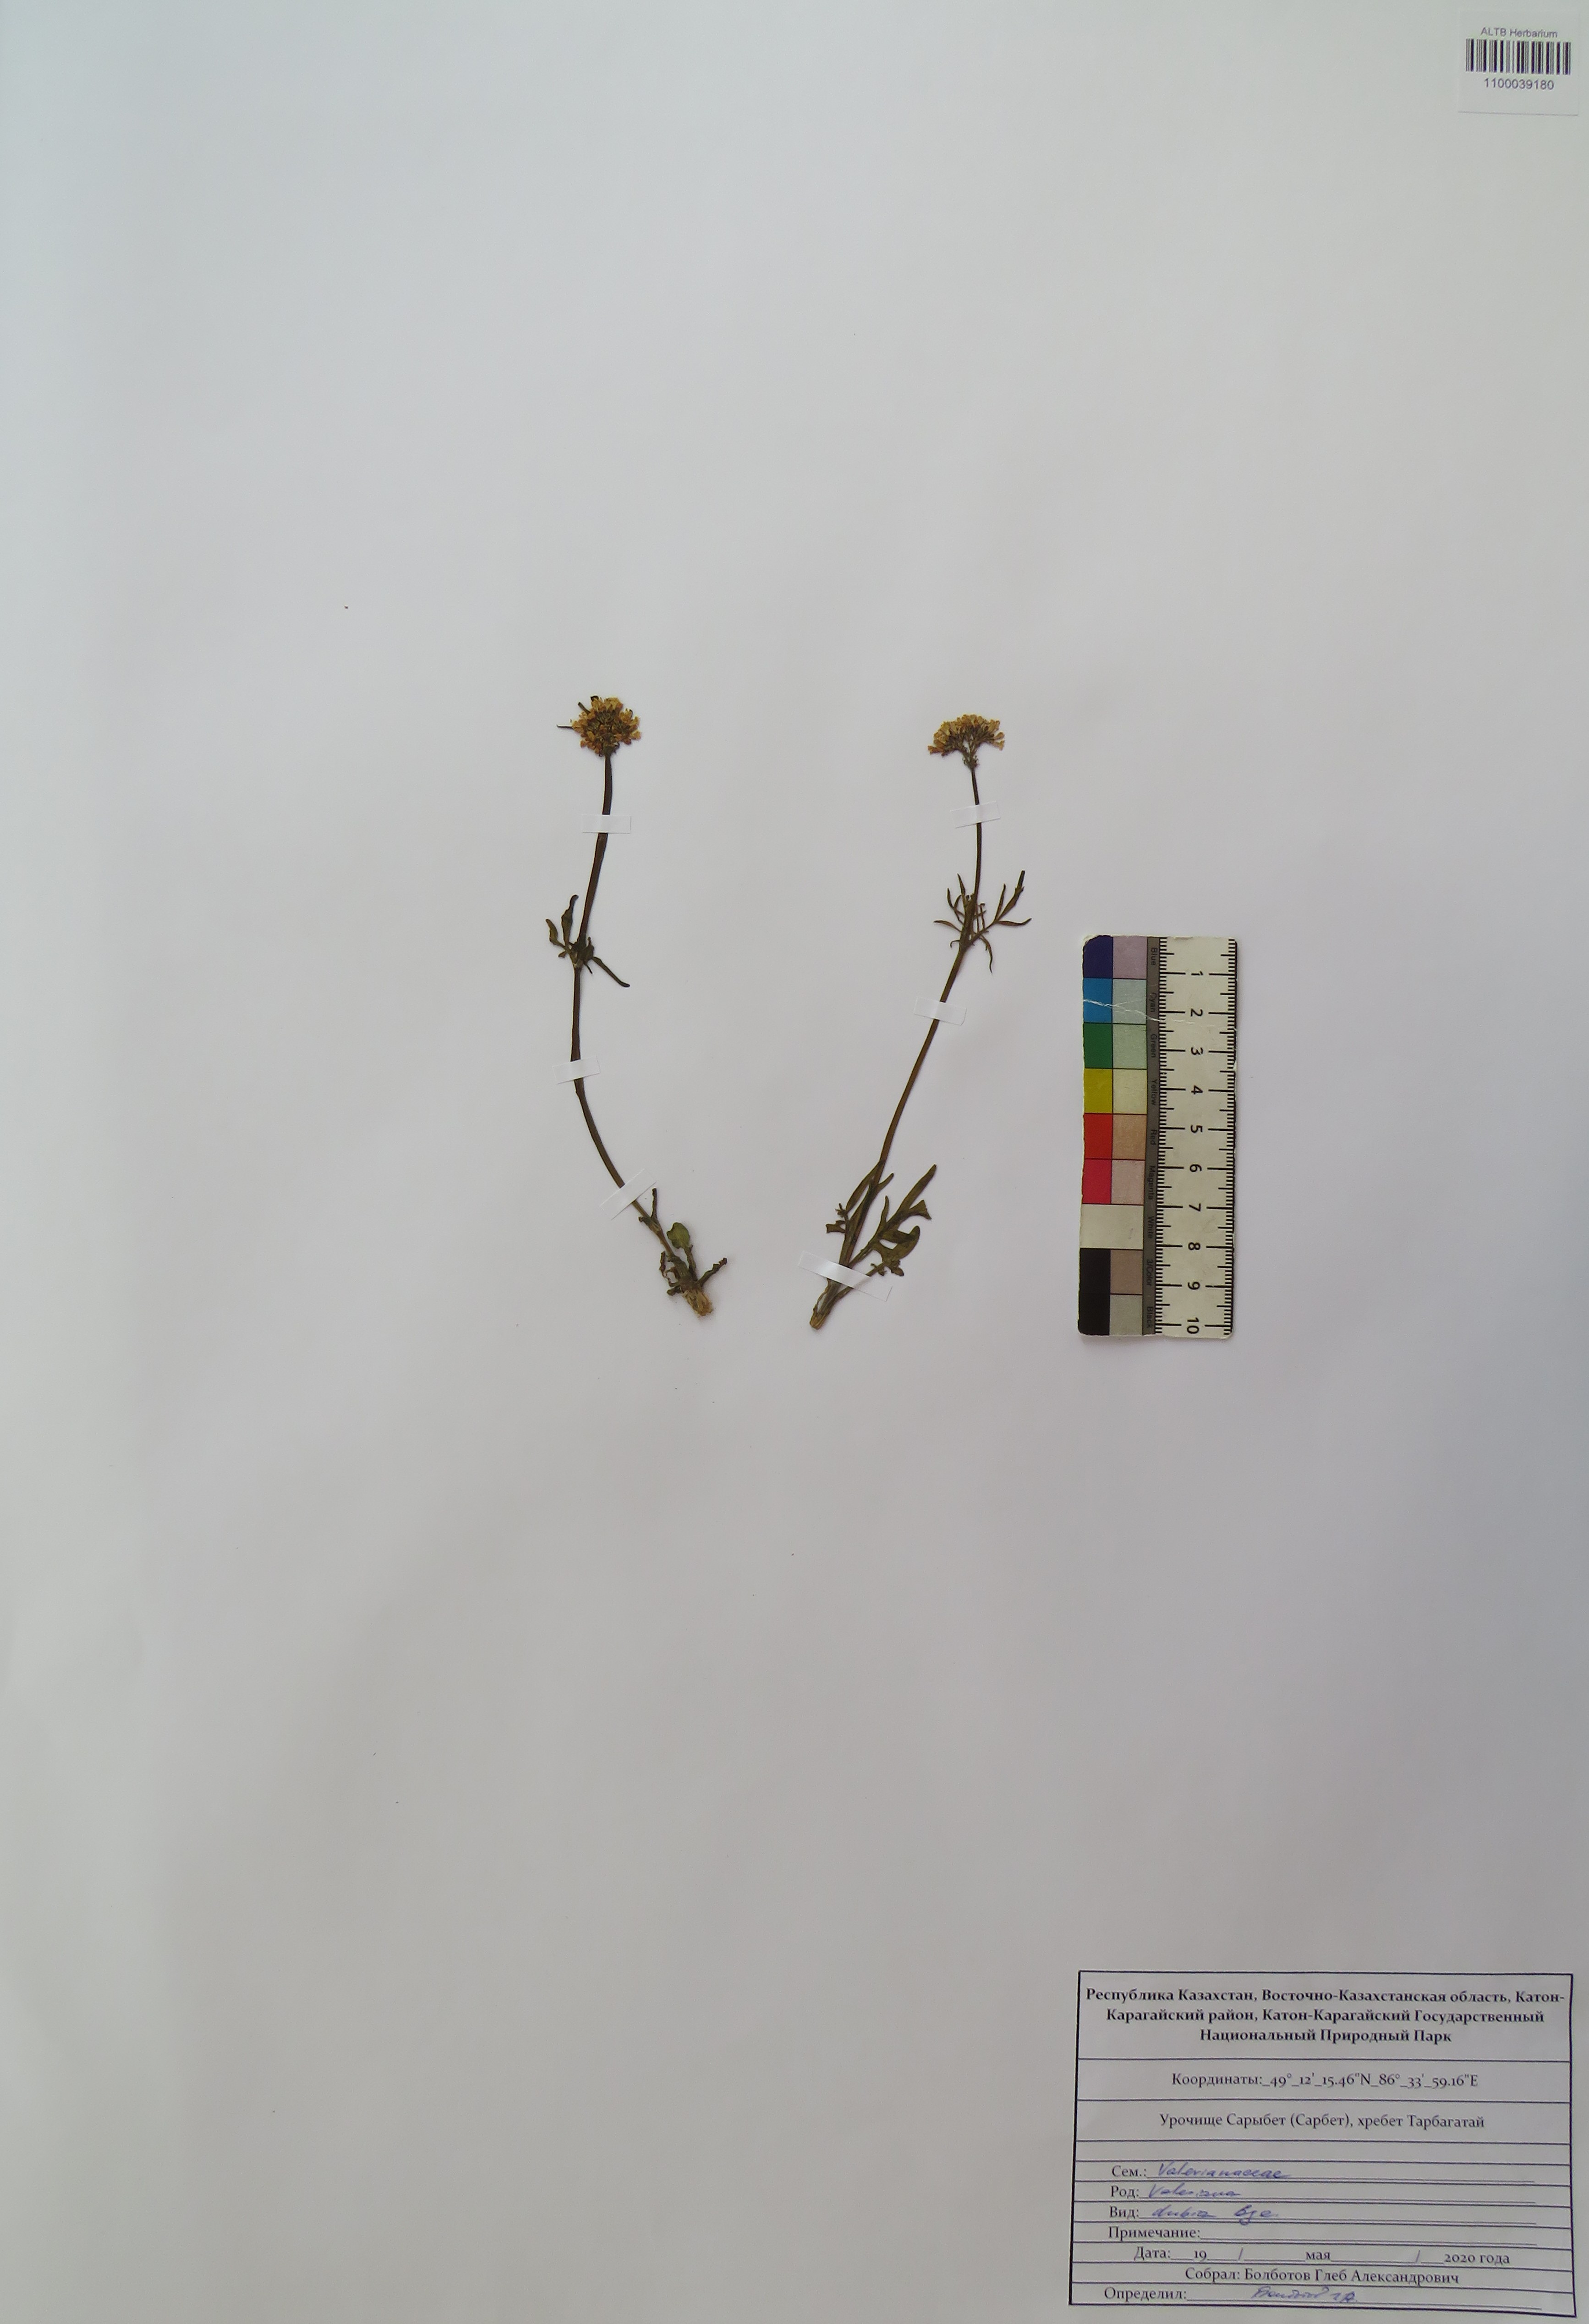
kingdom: Plantae
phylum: Tracheophyta
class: Magnoliopsida
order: Dipsacales
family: Caprifoliaceae
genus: Valeriana
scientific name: Valeriana dubia
